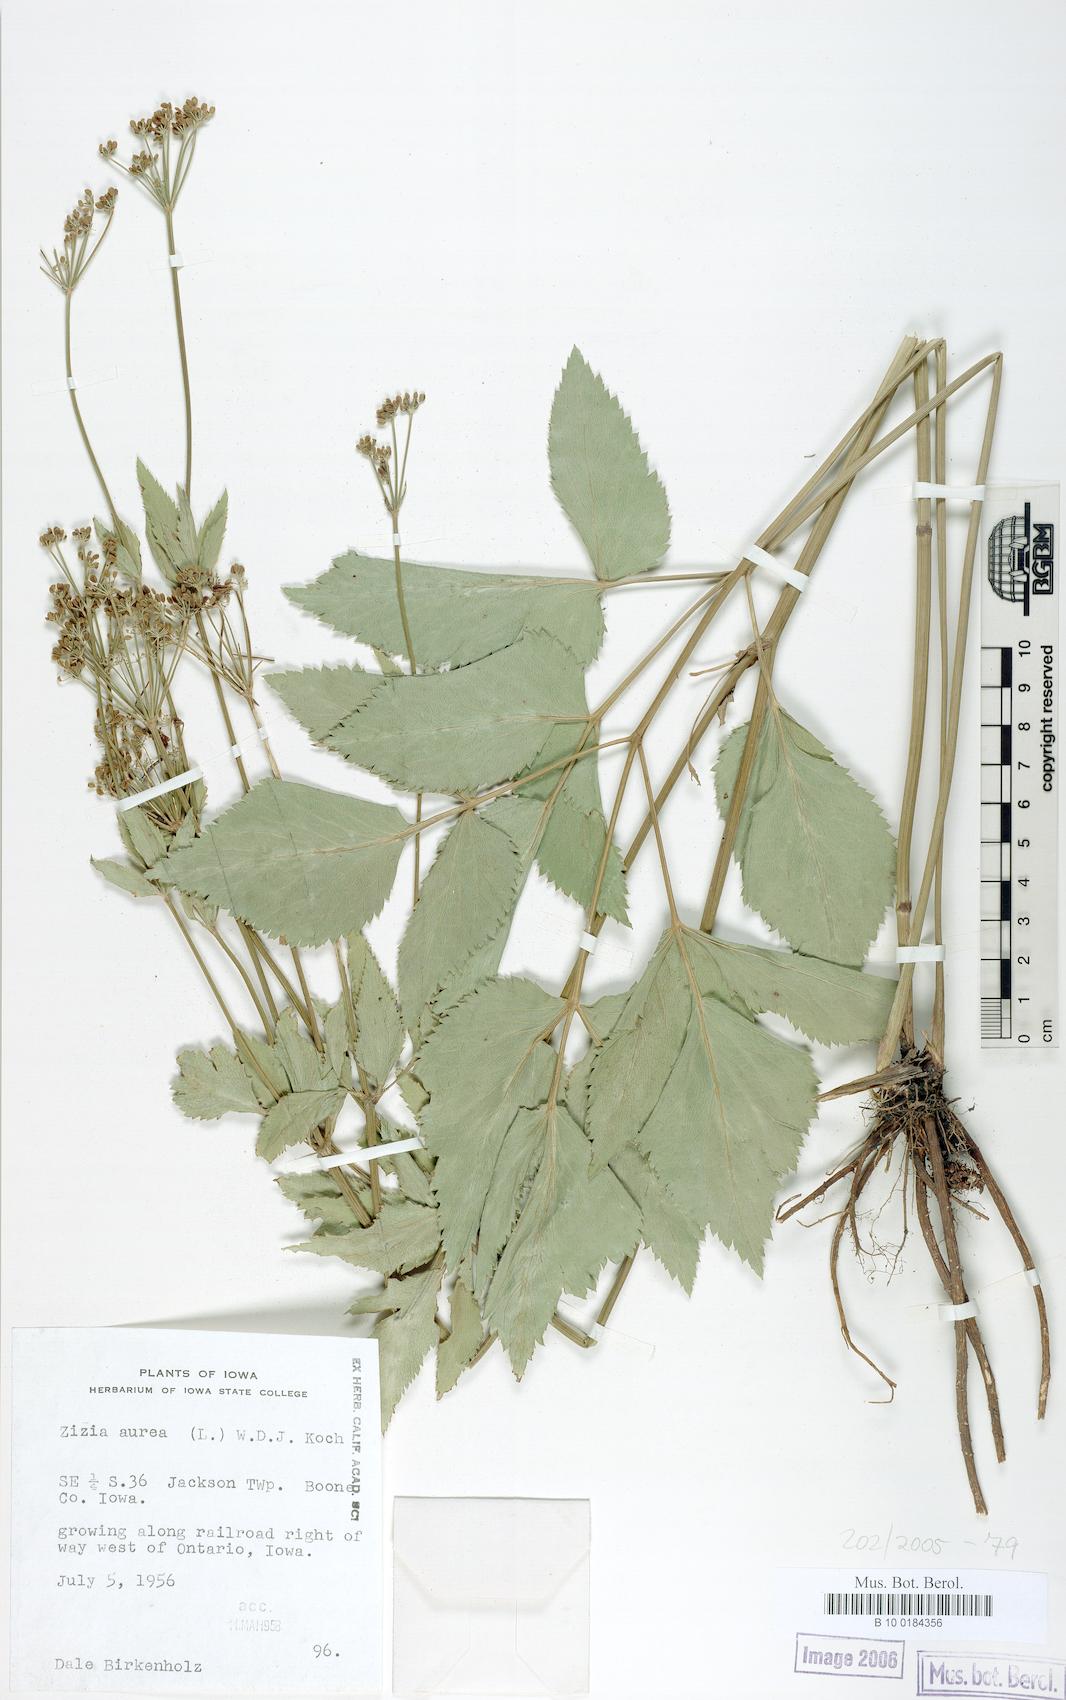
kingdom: Plantae
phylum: Tracheophyta
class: Magnoliopsida
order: Apiales
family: Apiaceae
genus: Zizia
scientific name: Zizia aurea
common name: Golden alexanders
